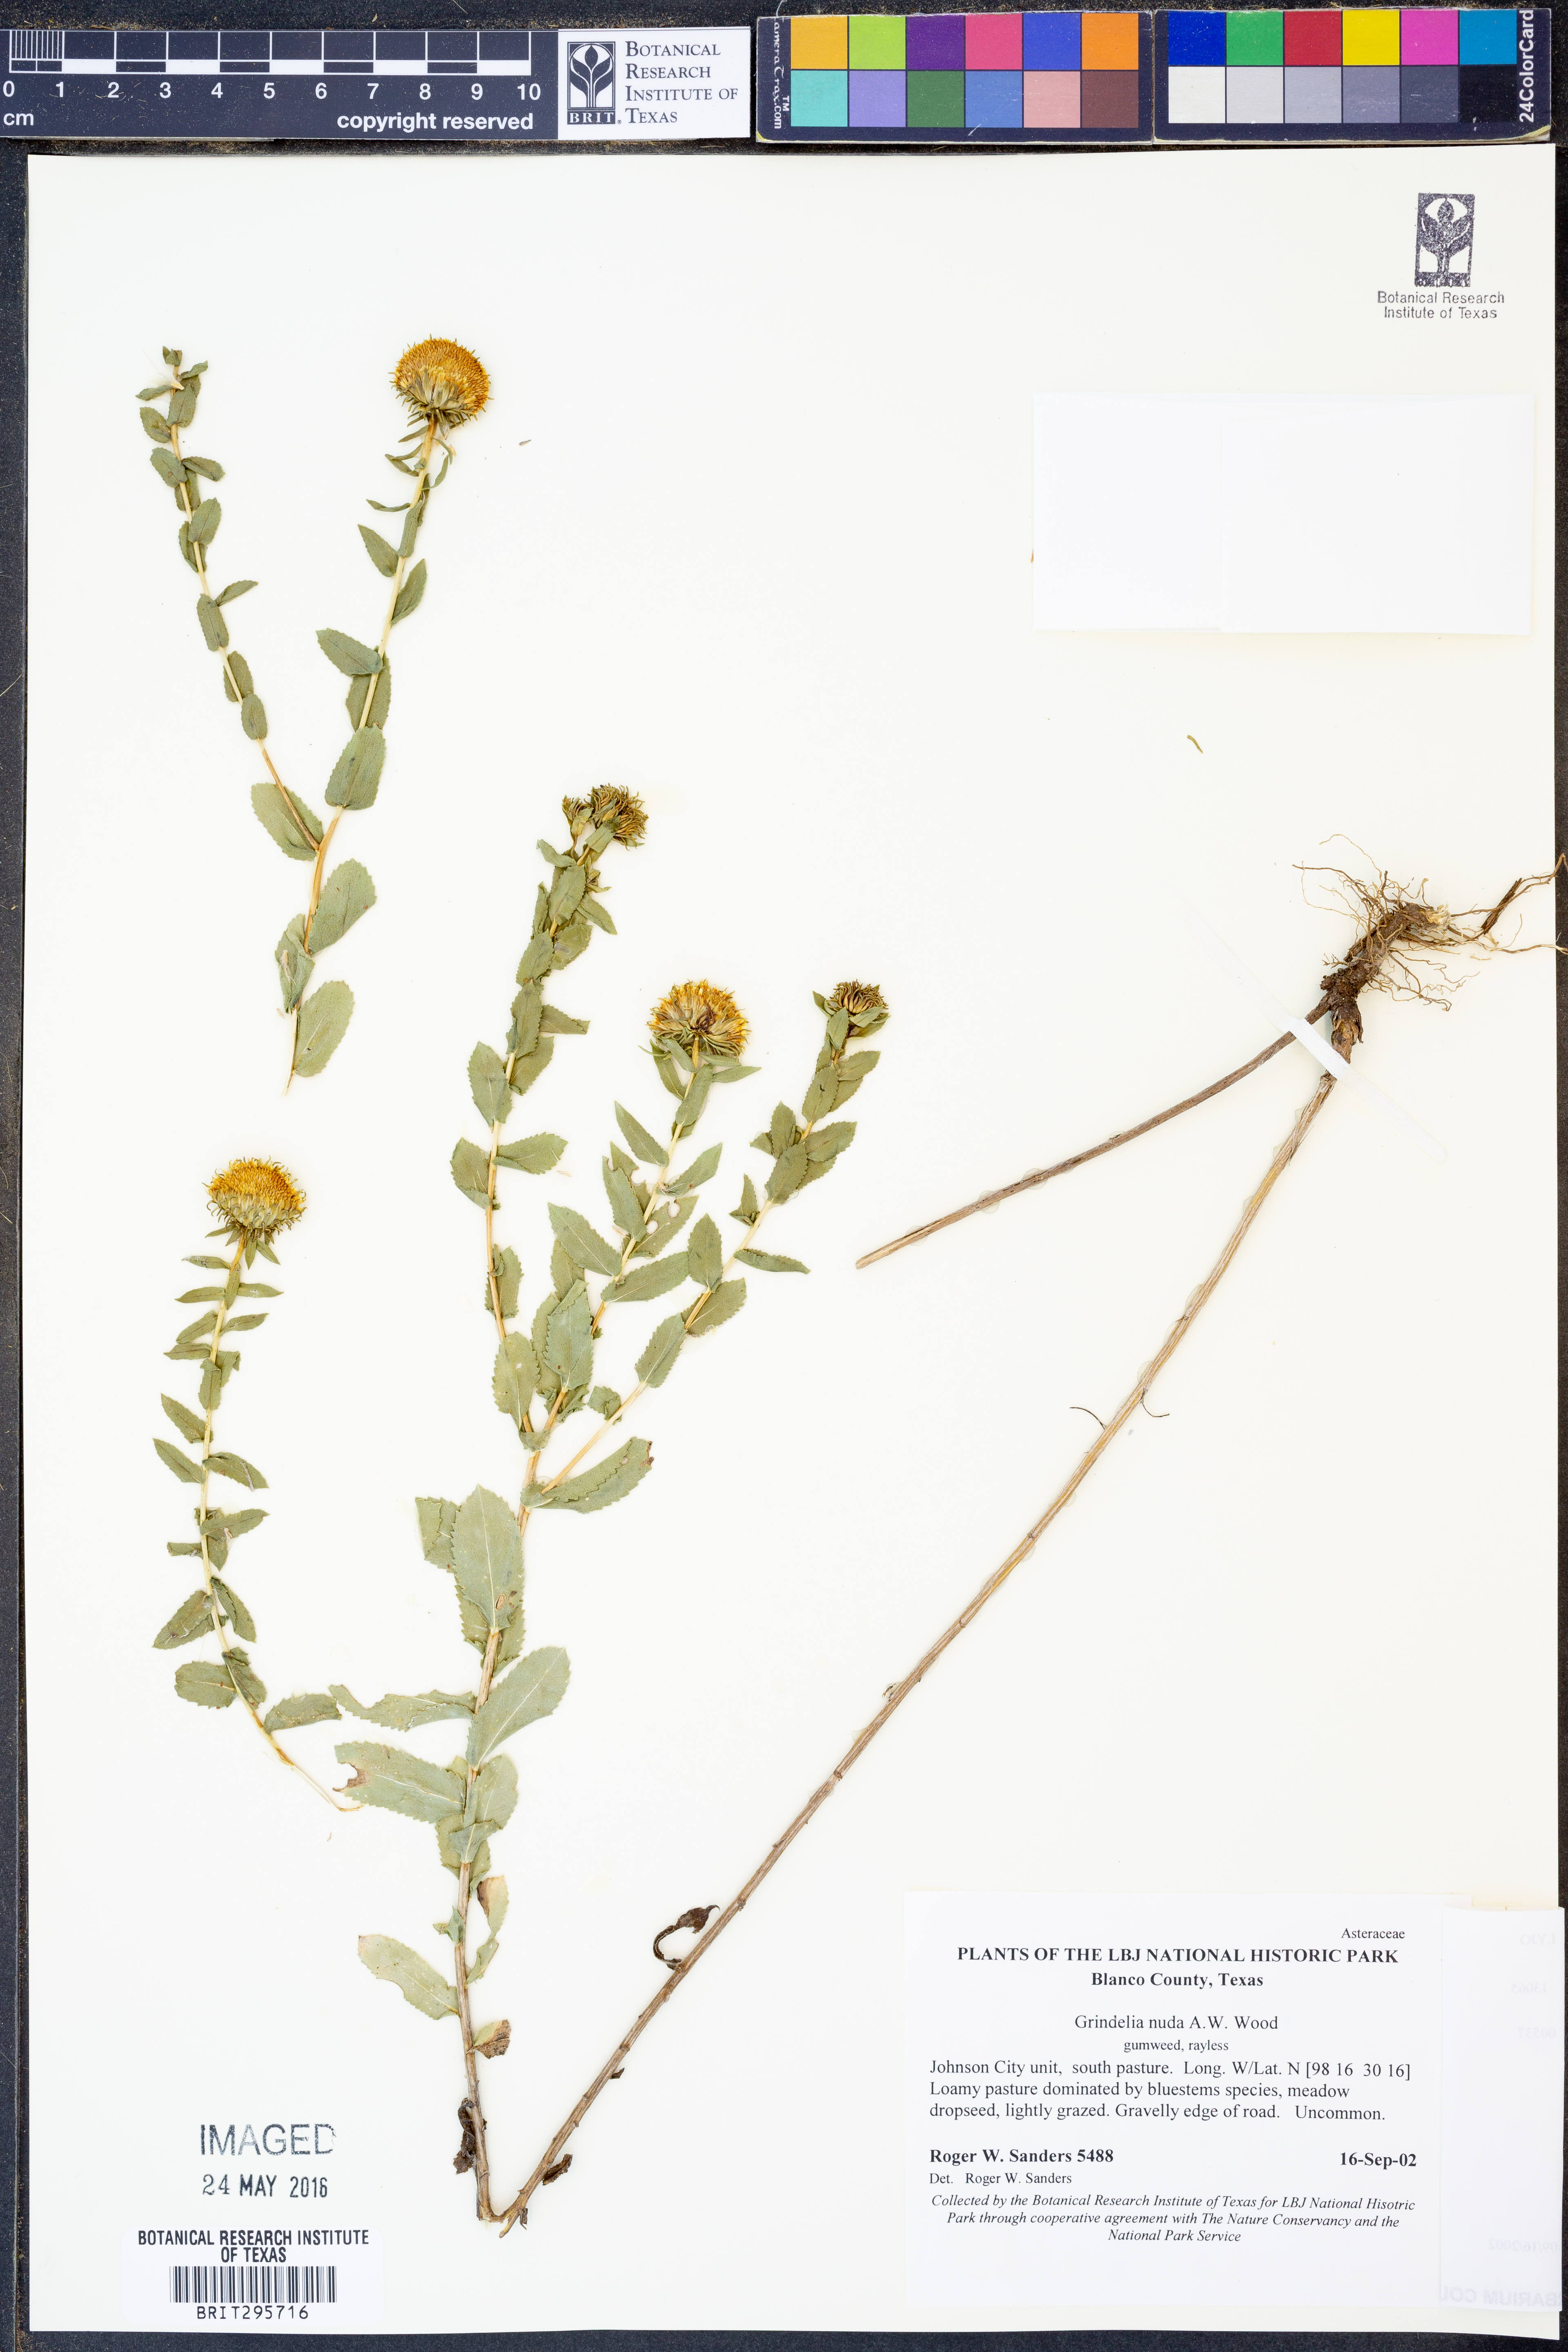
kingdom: Plantae
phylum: Tracheophyta
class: Magnoliopsida
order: Asterales
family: Asteraceae
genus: Grindelia
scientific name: Grindelia nuda
